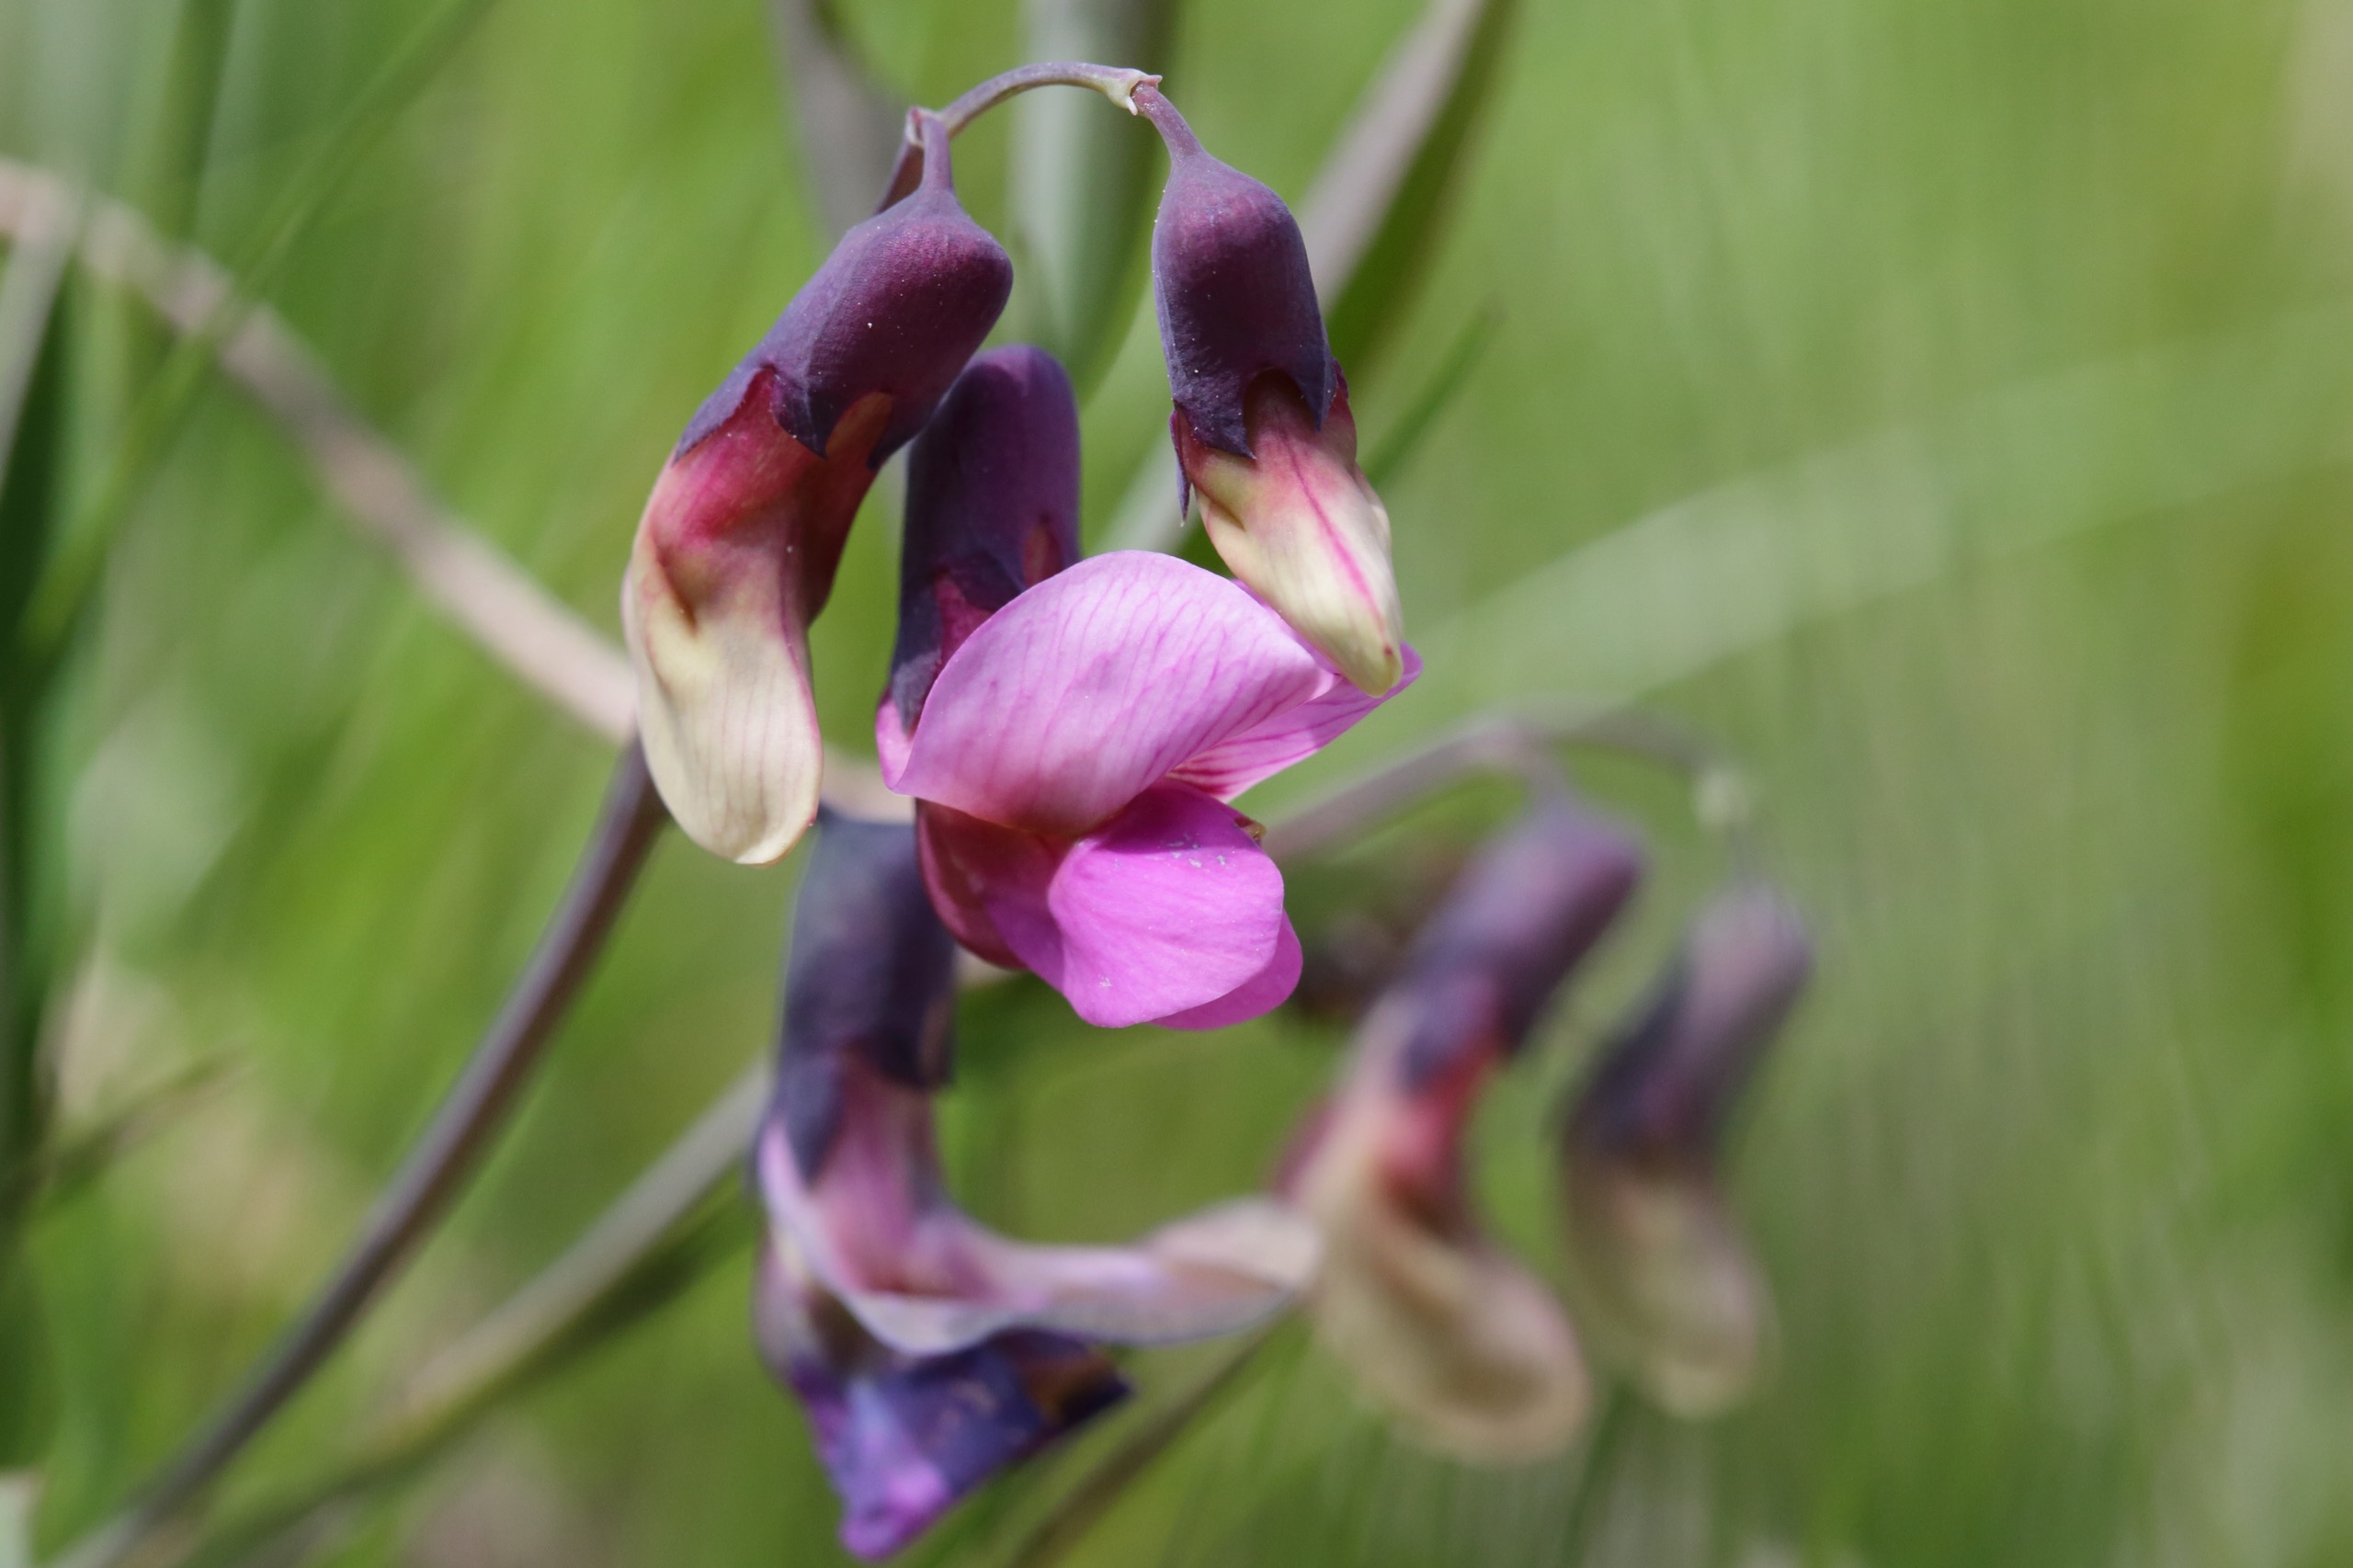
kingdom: Plantae
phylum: Tracheophyta
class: Magnoliopsida
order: Fabales
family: Fabaceae
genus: Lathyrus
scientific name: Lathyrus linifolius
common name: Krat-fladbælg
